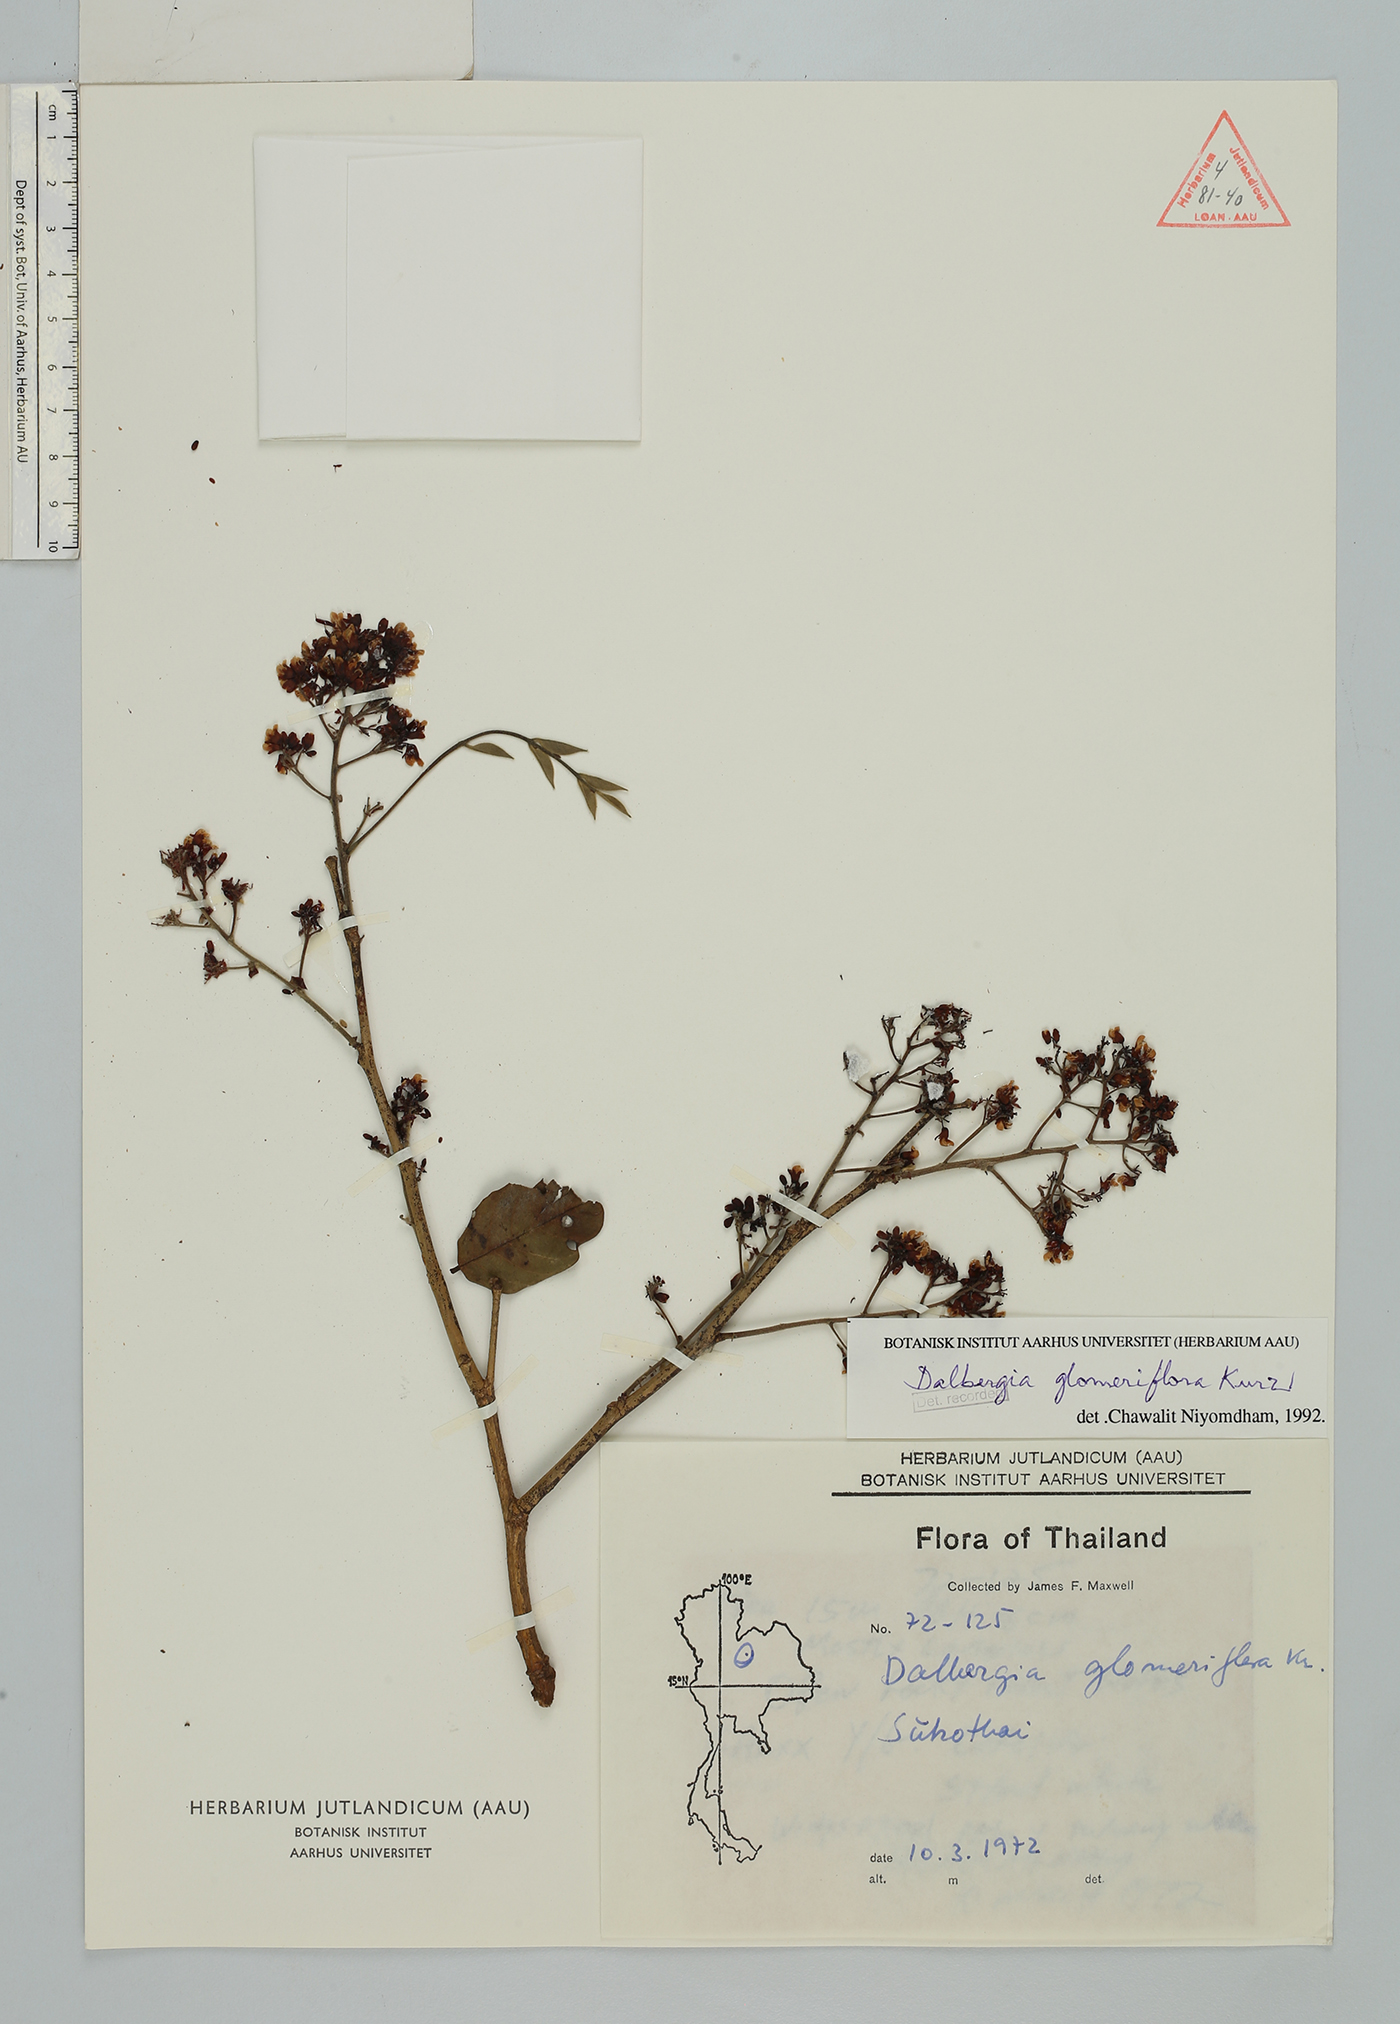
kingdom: Plantae
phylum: Tracheophyta
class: Magnoliopsida
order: Fabales
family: Fabaceae
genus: Dalbergia
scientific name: Dalbergia glomeriflora
